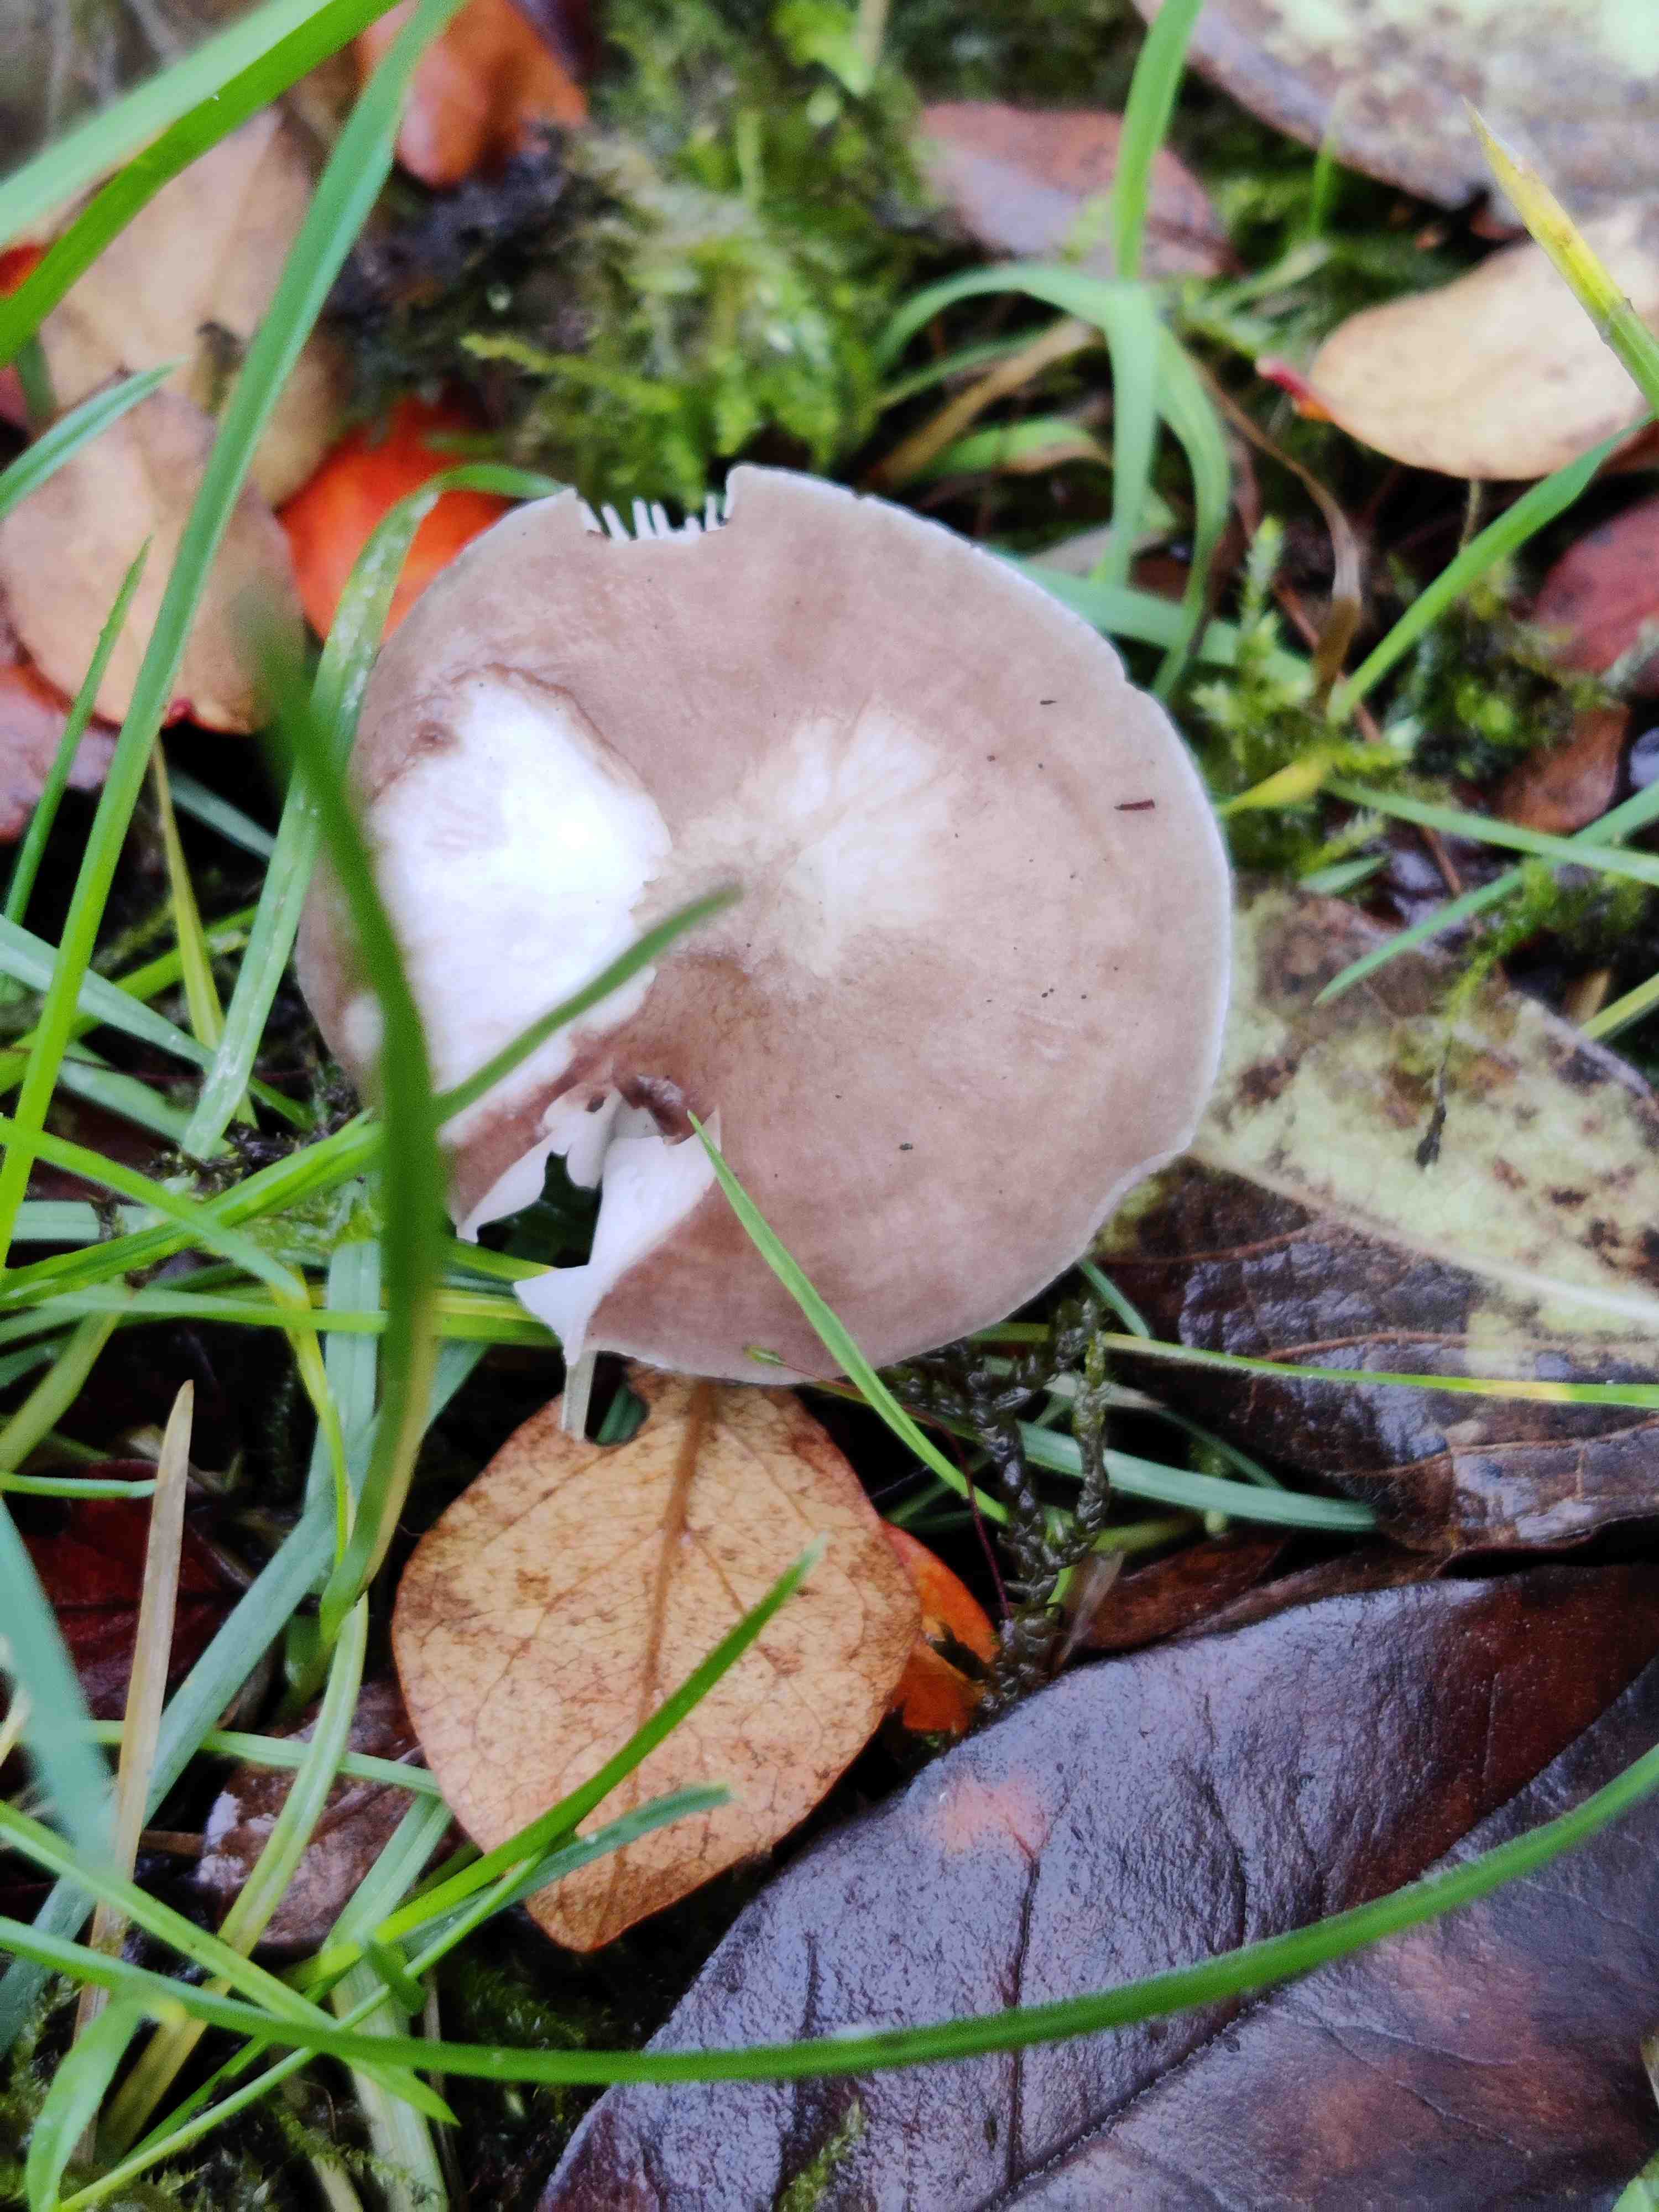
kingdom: Fungi
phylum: Basidiomycota
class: Agaricomycetes
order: Agaricales
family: Pluteaceae
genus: Pluteus
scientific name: Pluteus cervinus
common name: sodfarvet skærmhat
